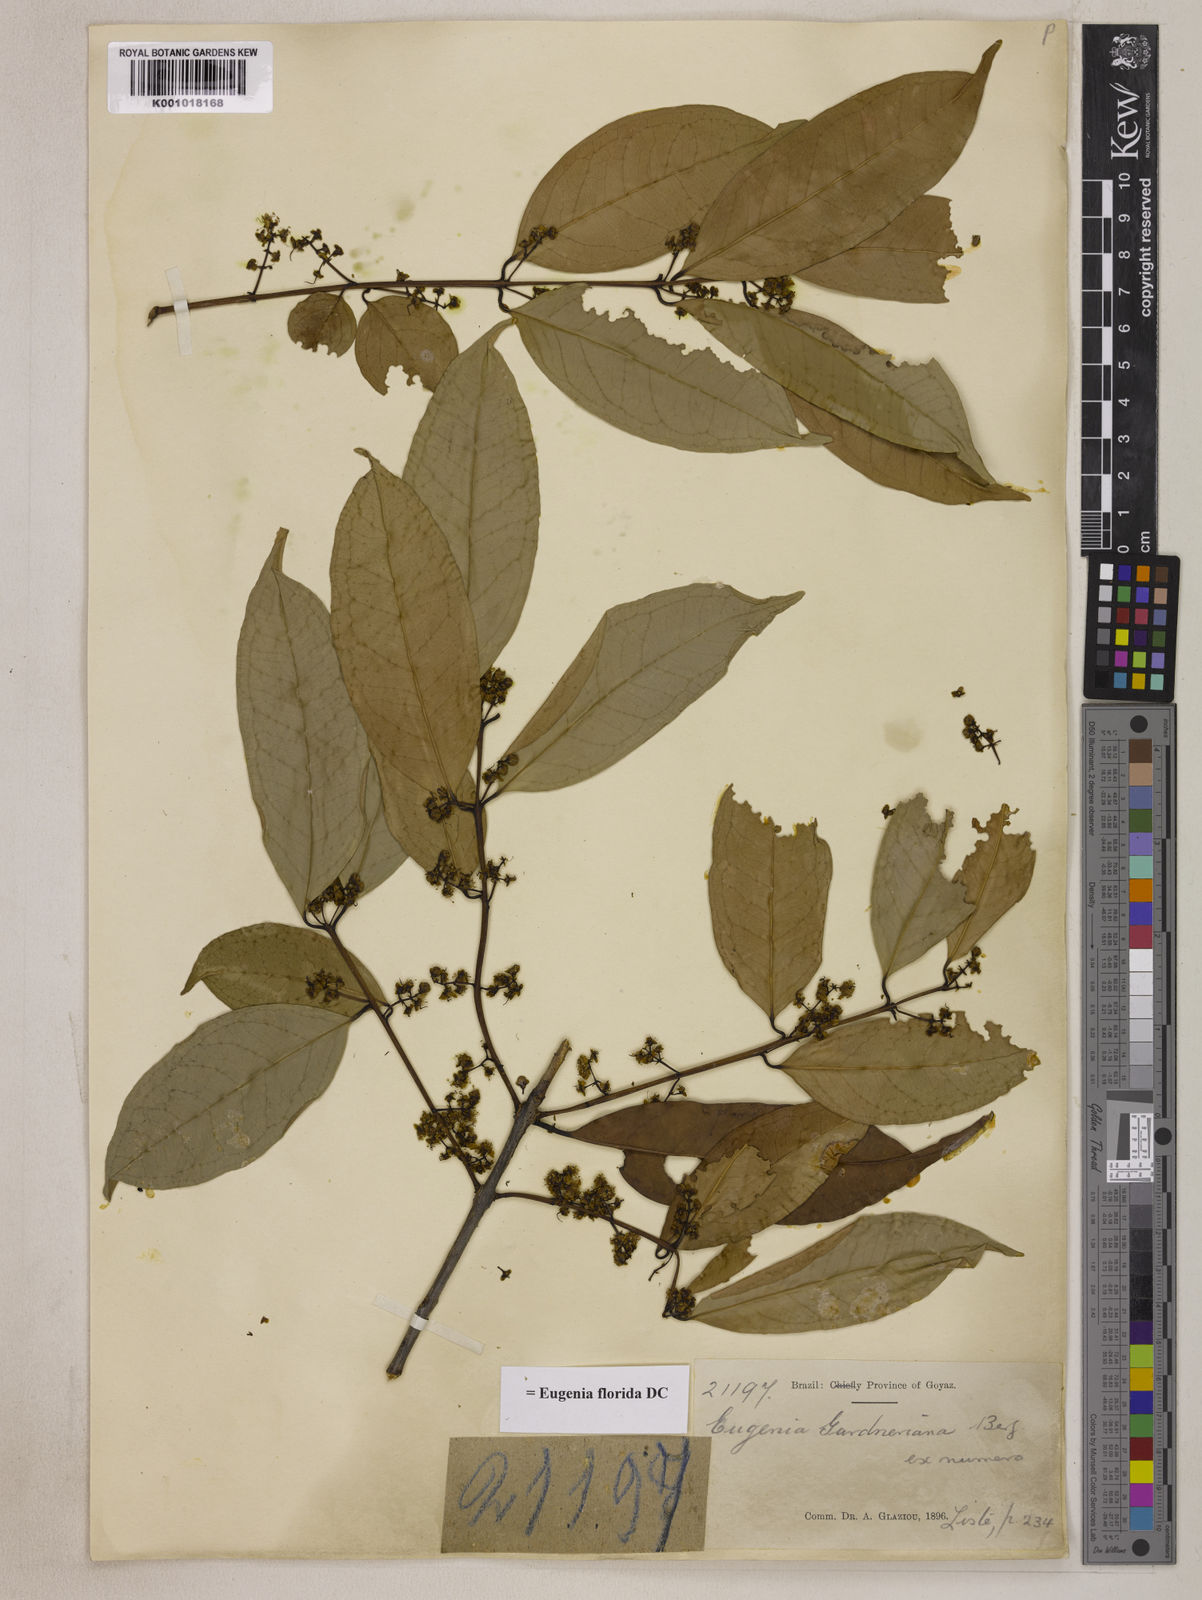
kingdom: Plantae
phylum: Tracheophyta
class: Magnoliopsida
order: Myrtales
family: Myrtaceae
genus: Eugenia
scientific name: Eugenia florida
